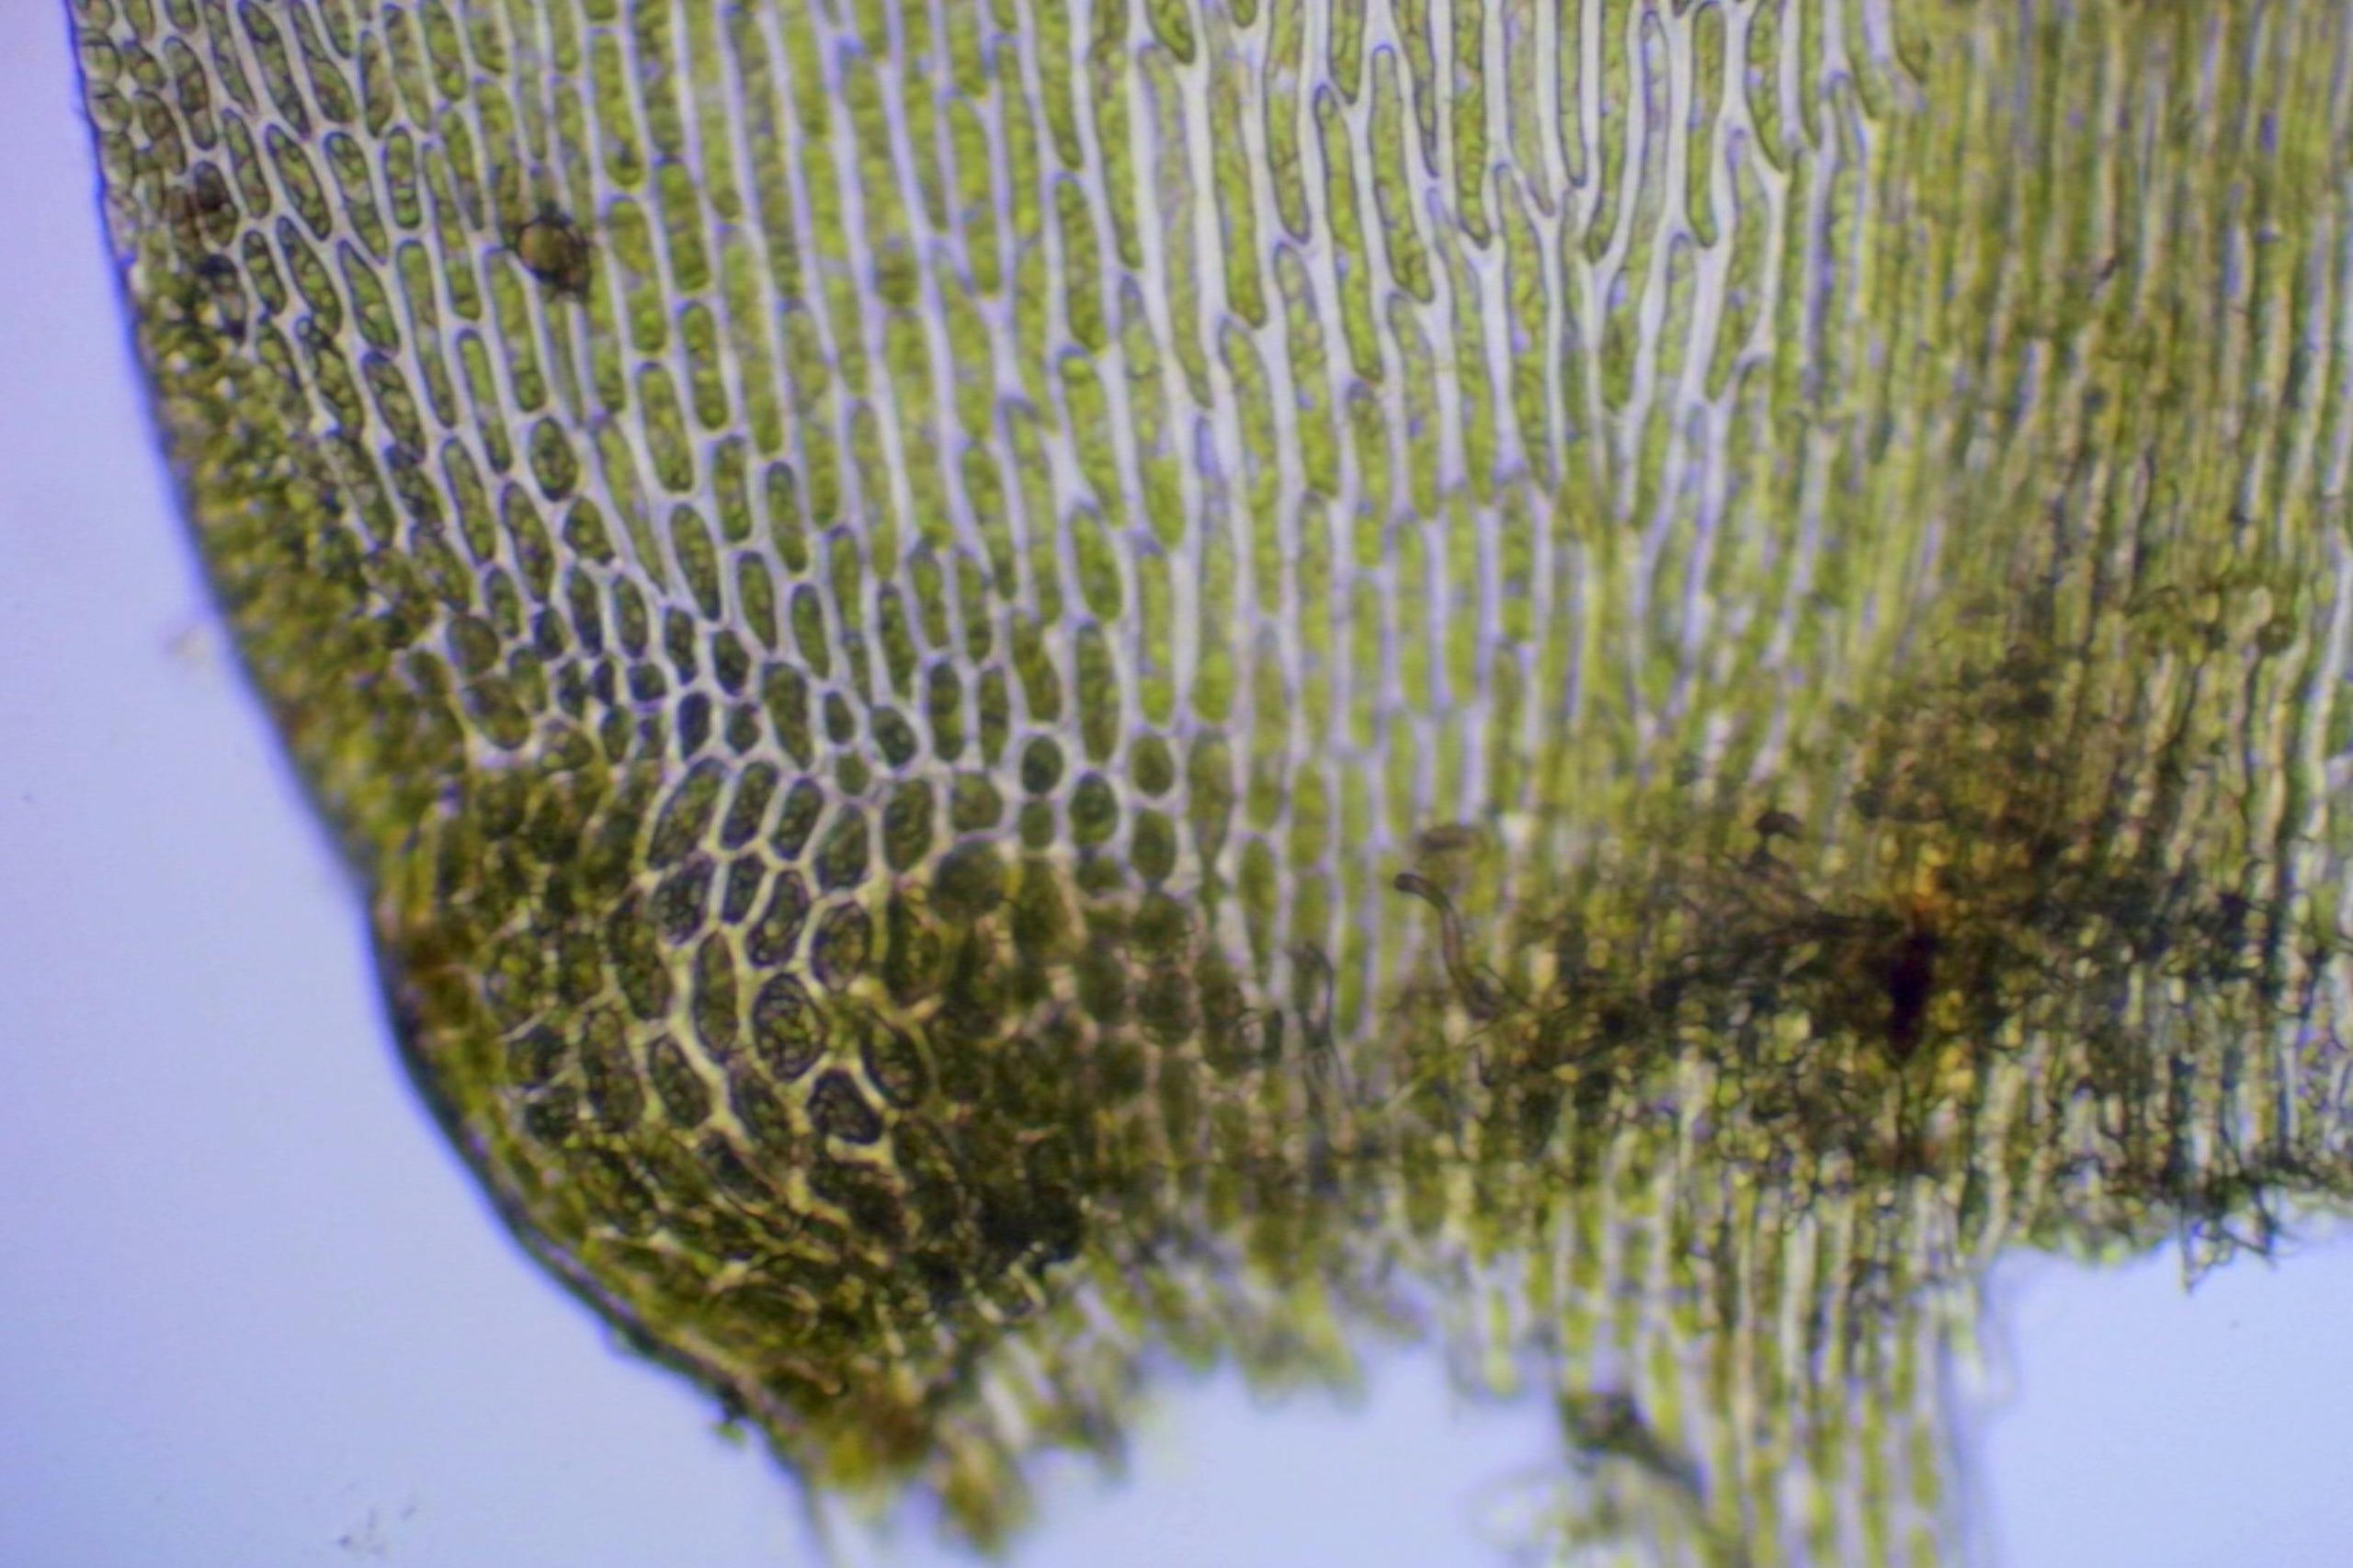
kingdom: Plantae
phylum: Bryophyta
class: Bryopsida
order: Hypnales
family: Lembophyllaceae
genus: Isothecium
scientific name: Isothecium alopecuroides
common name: Stor stammemos
